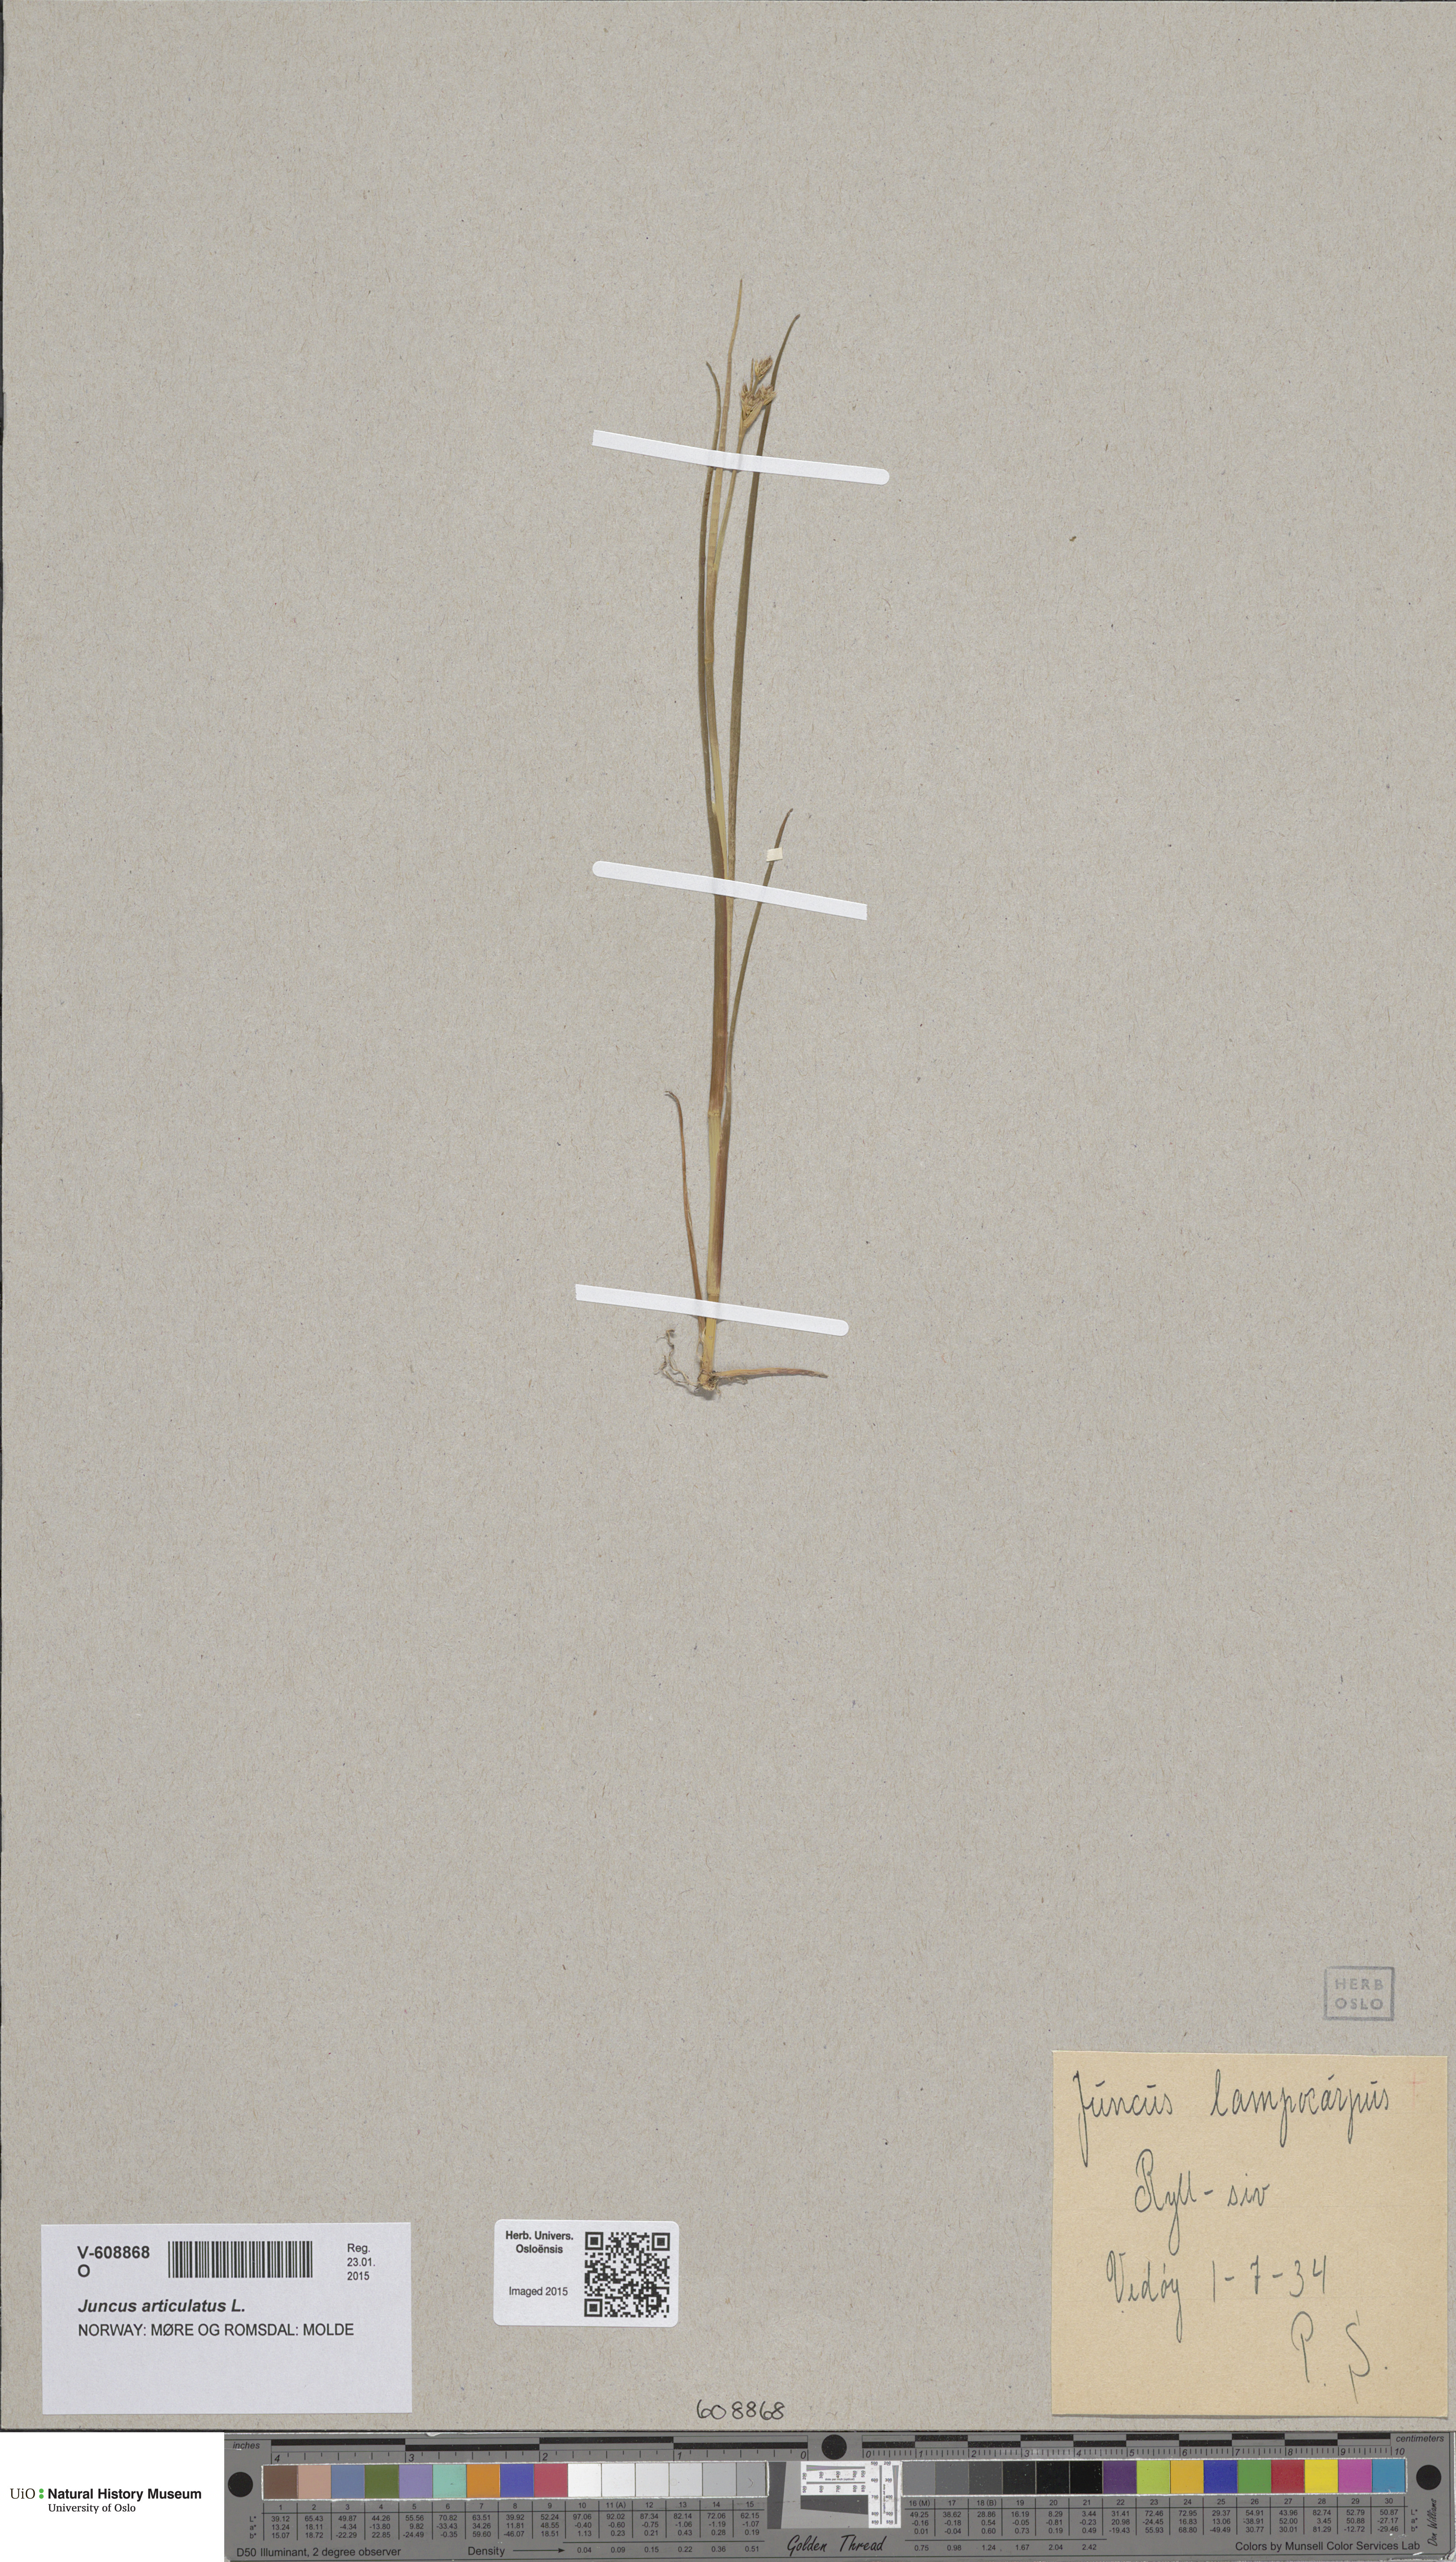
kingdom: Plantae
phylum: Tracheophyta
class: Liliopsida
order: Poales
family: Juncaceae
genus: Juncus
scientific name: Juncus articulatus
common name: Jointed rush
